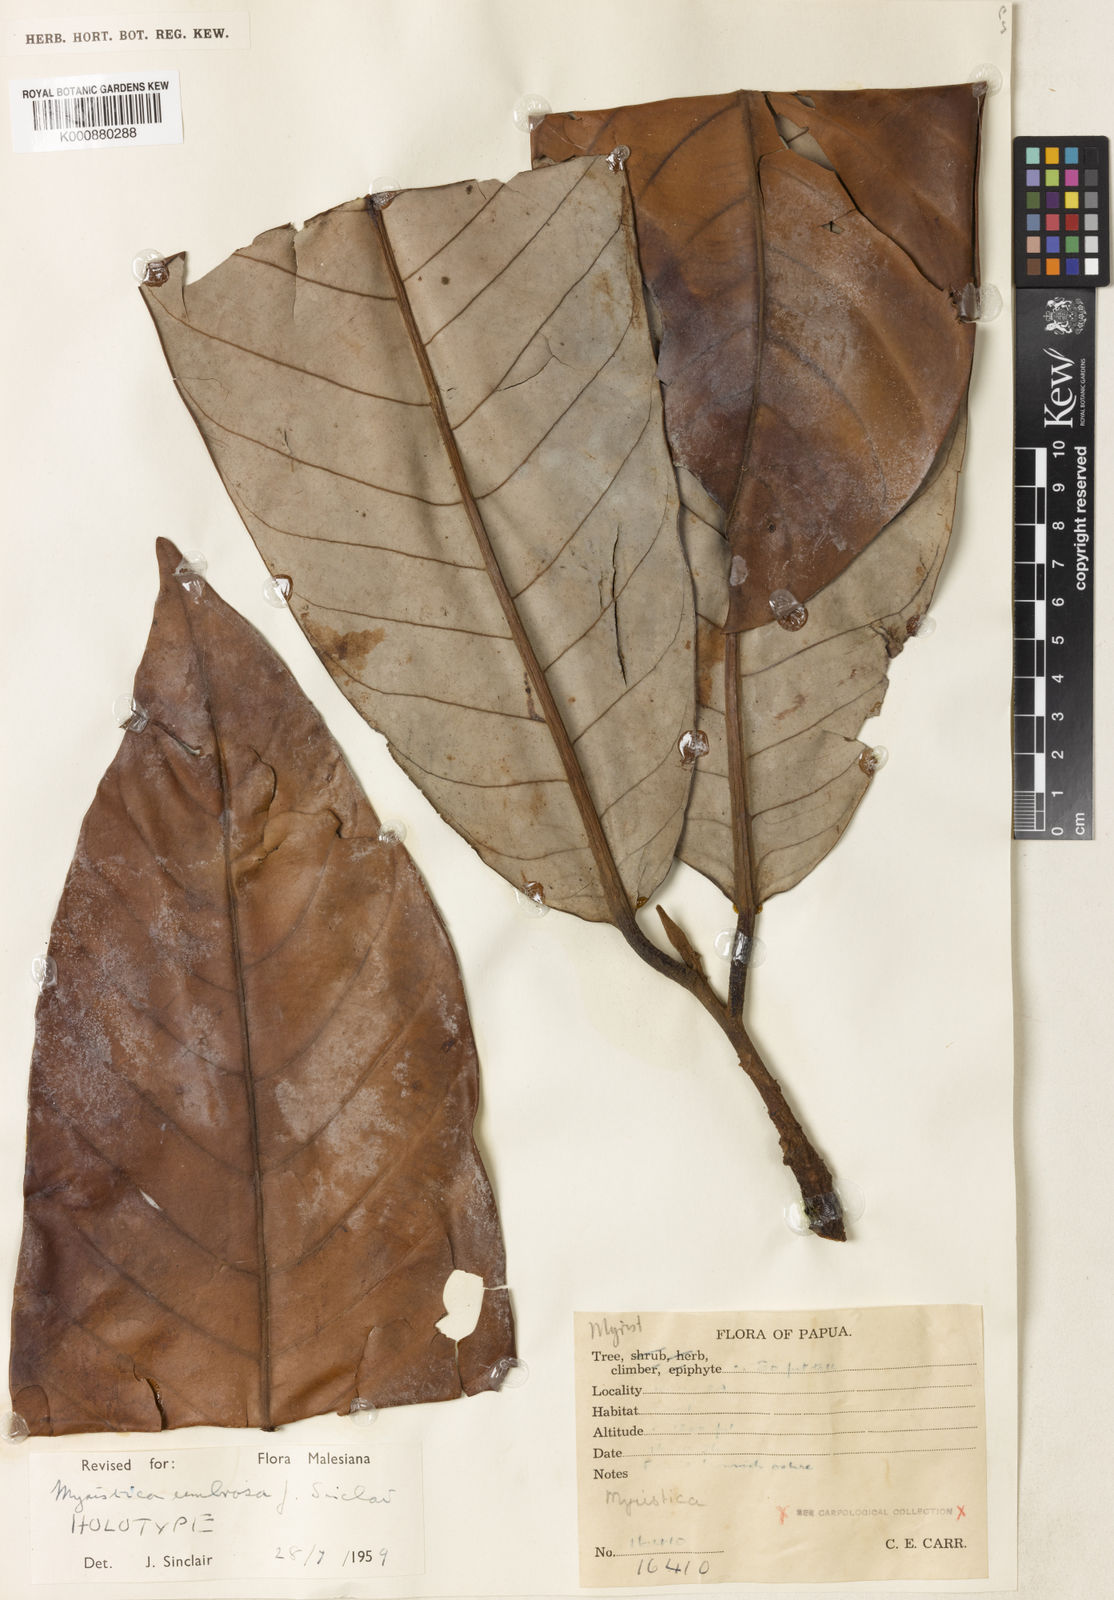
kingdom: Plantae
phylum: Tracheophyta
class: Magnoliopsida
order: Magnoliales
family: Myristicaceae
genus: Myristica
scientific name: Myristica umbrosa
